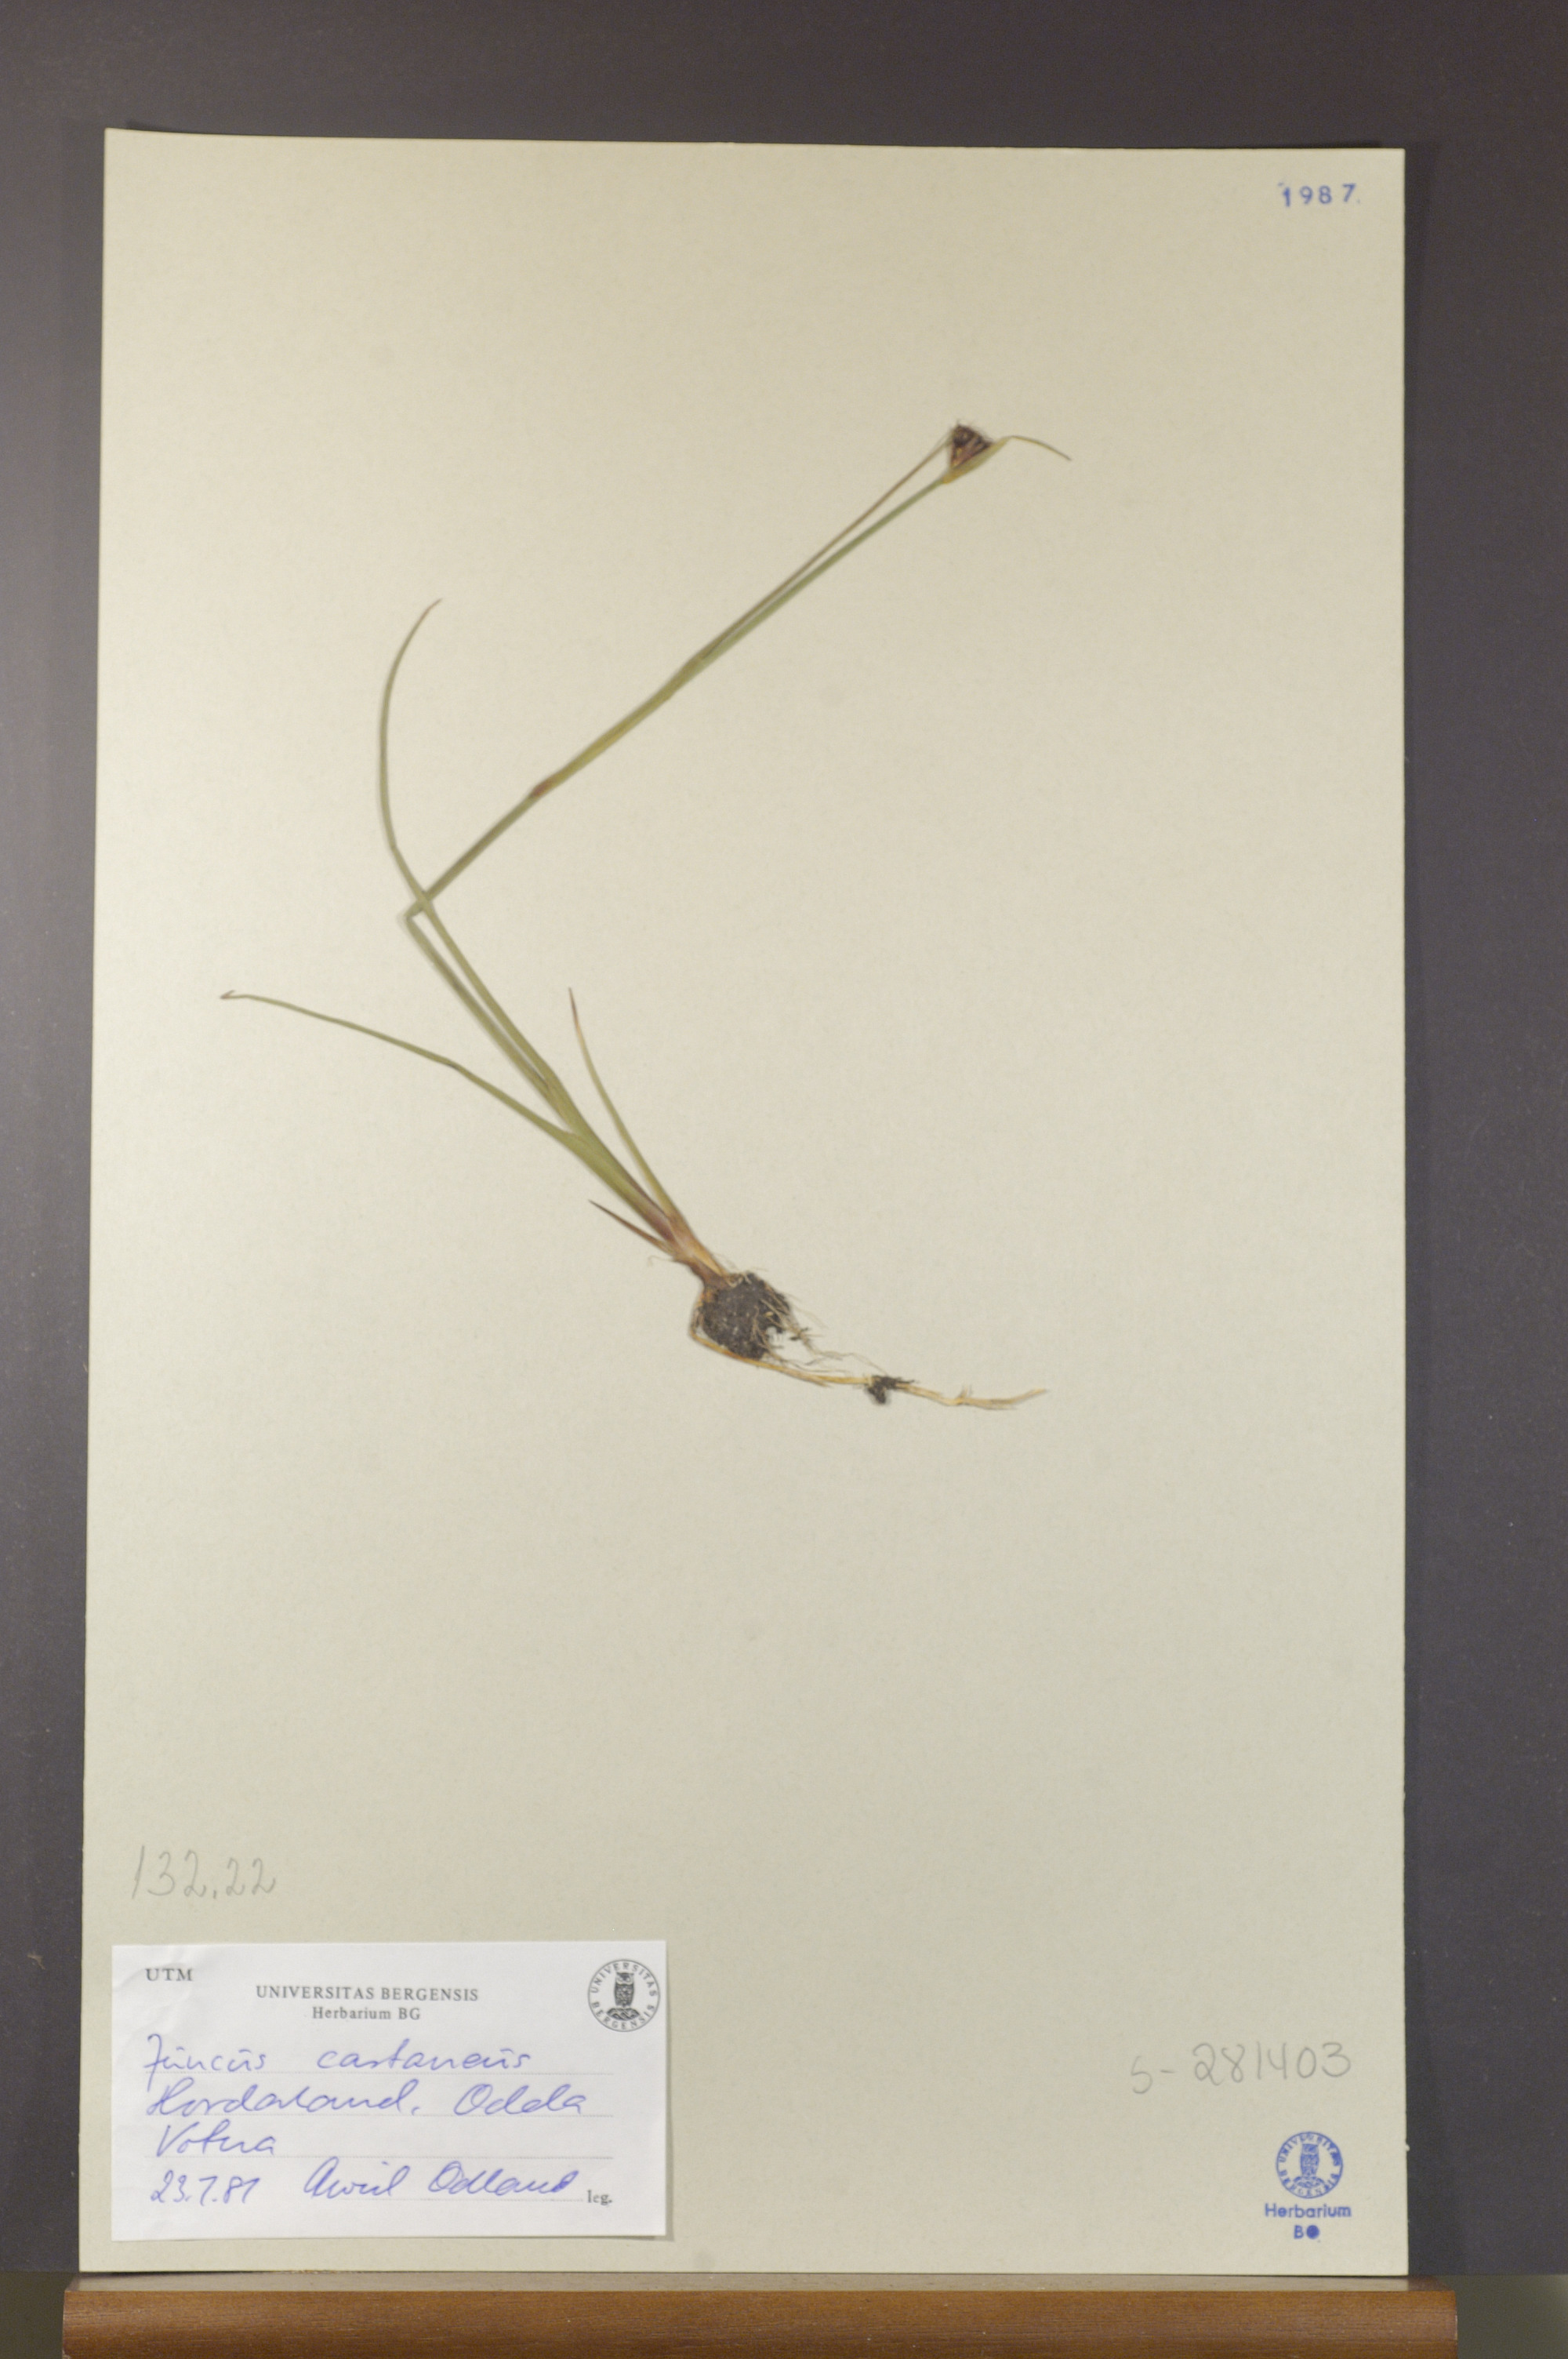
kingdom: Plantae
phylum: Tracheophyta
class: Liliopsida
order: Poales
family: Juncaceae
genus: Juncus
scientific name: Juncus castaneus
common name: Chestnut rush
